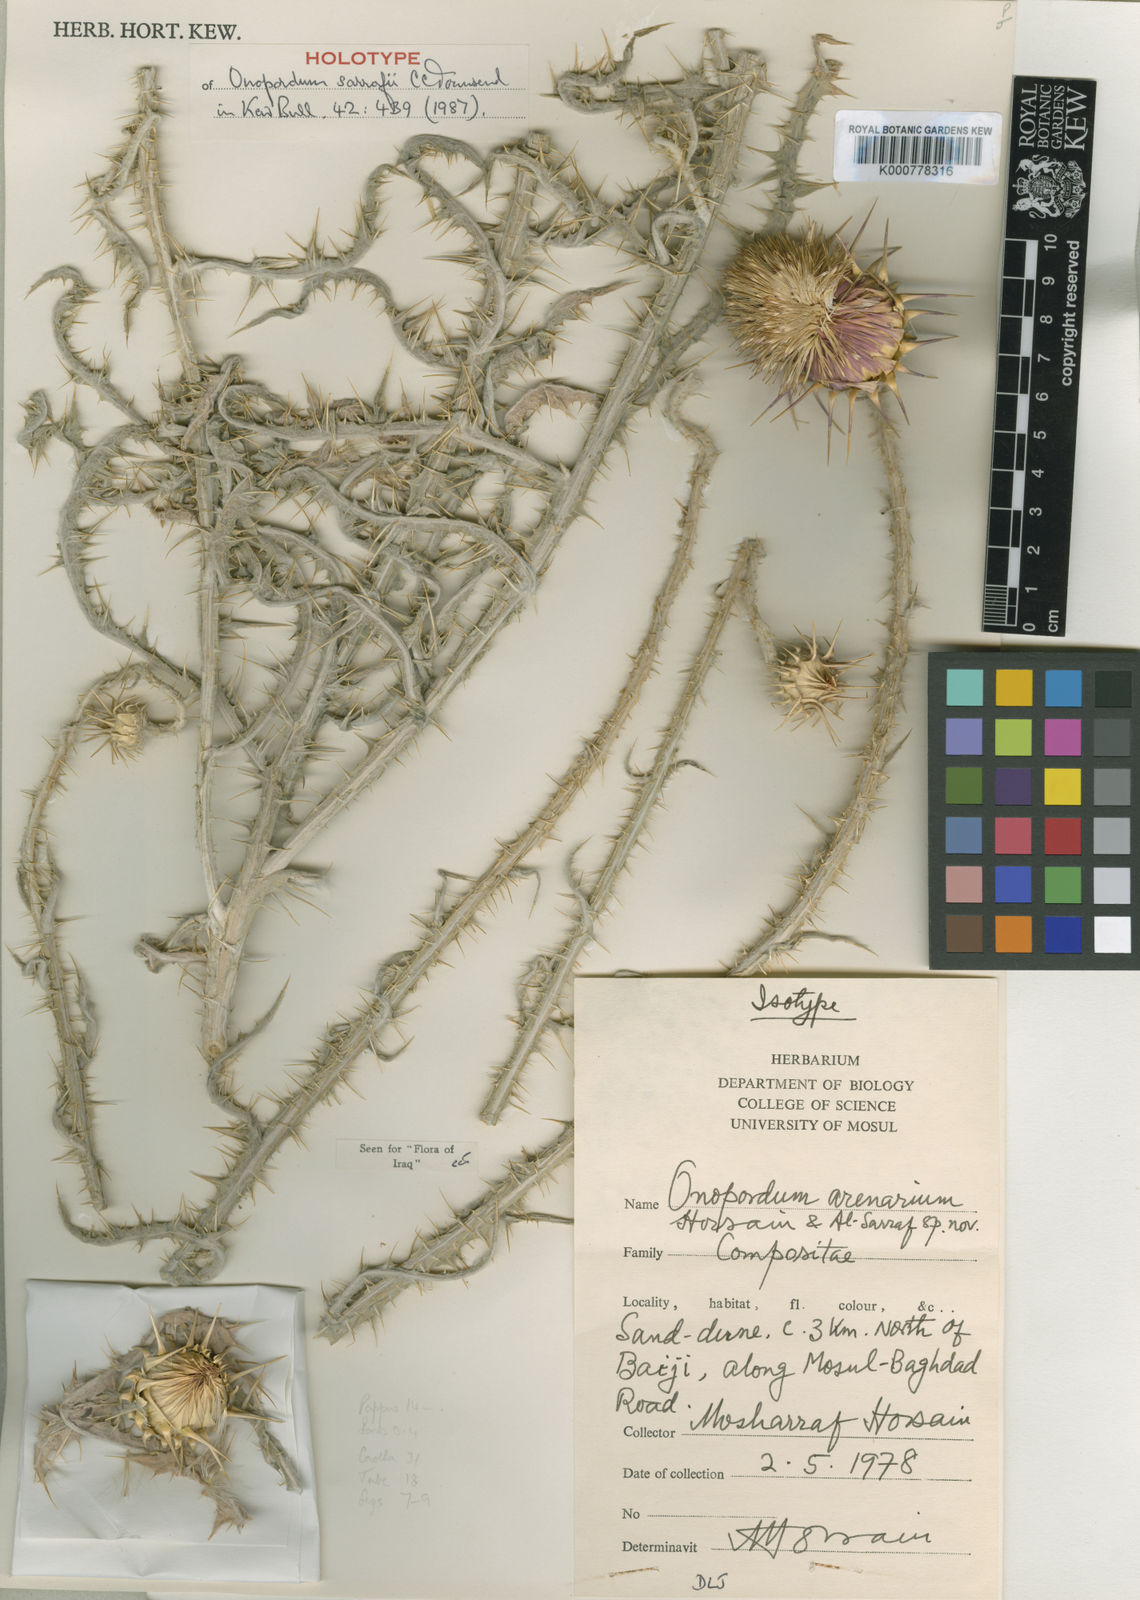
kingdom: Plantae
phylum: Tracheophyta
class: Magnoliopsida
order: Asterales
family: Asteraceae
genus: Onopordum
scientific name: Onopordum sarrafii
